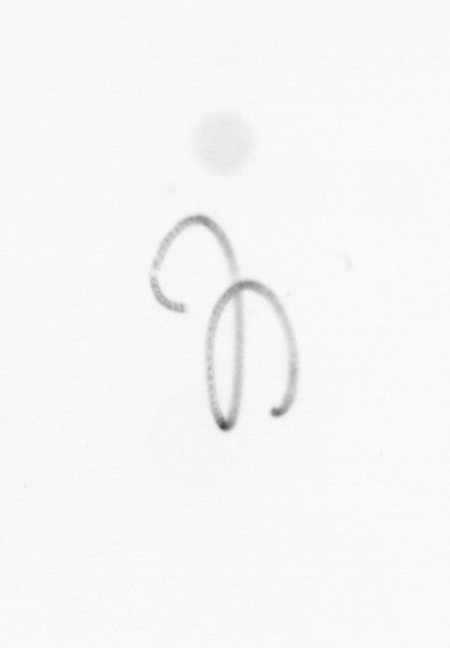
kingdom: Chromista
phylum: Ochrophyta
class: Bacillariophyceae
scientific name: Bacillariophyceae
